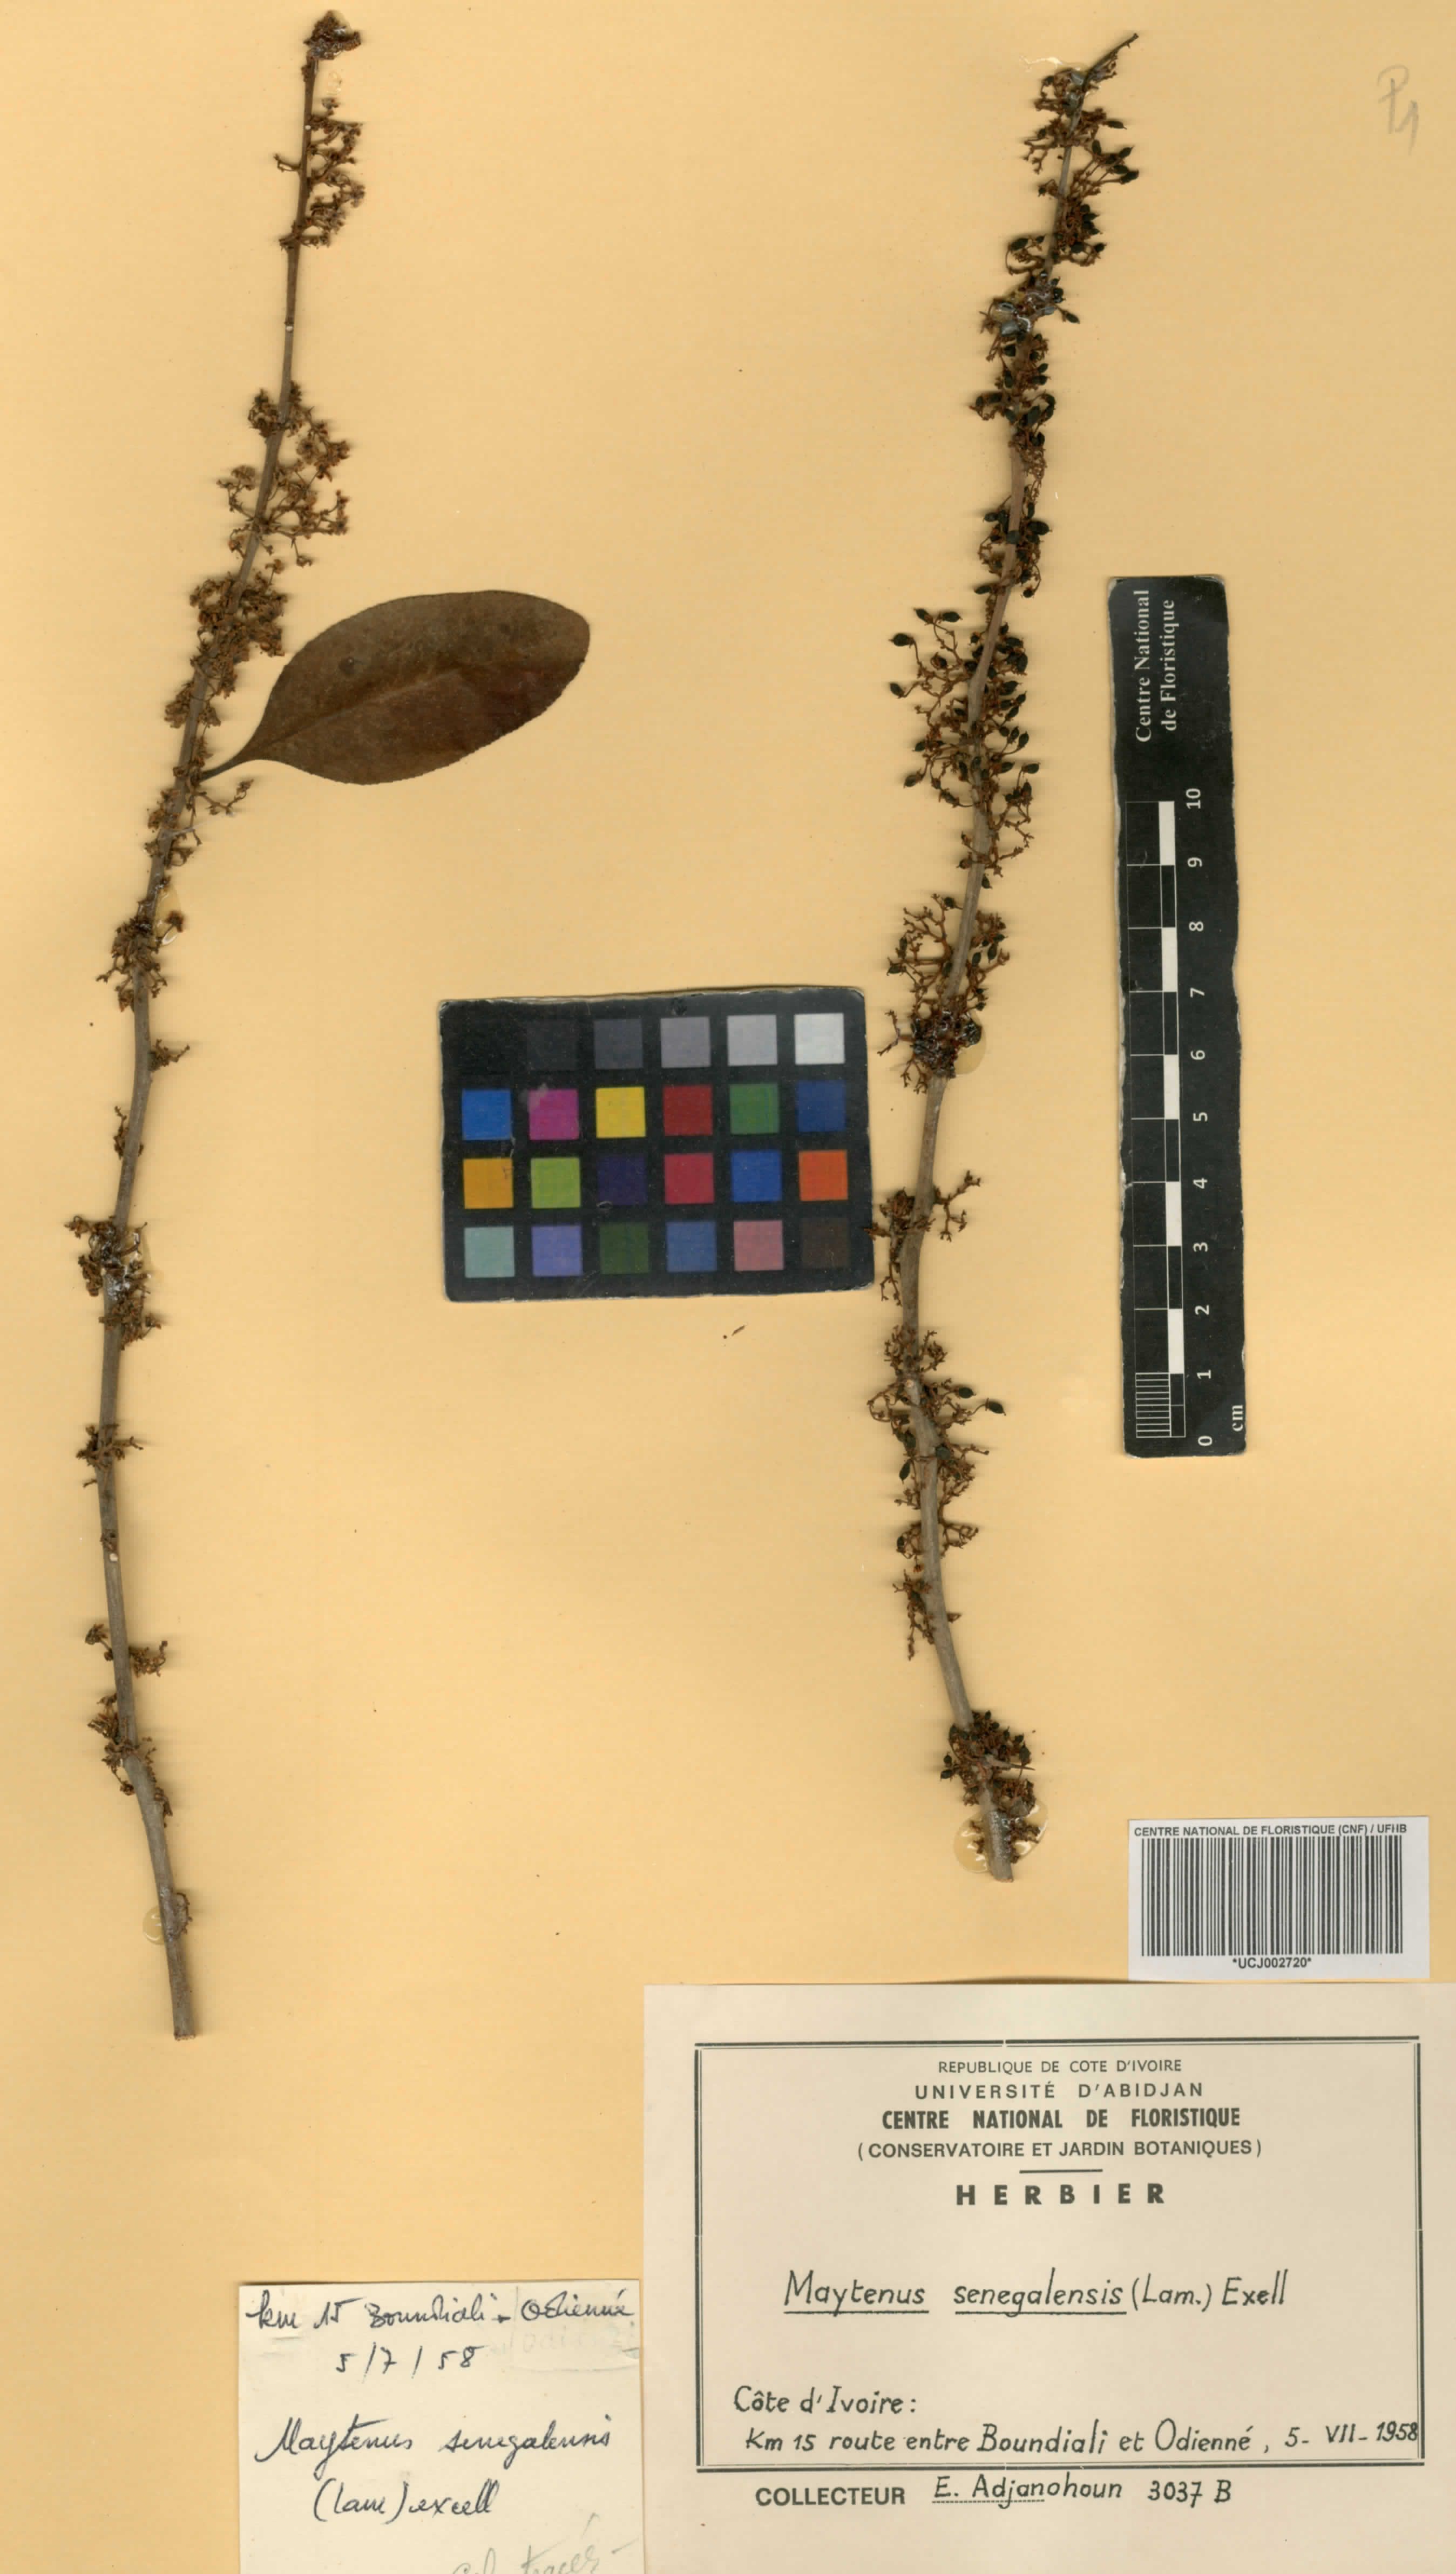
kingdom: Plantae
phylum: Tracheophyta
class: Magnoliopsida
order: Celastrales
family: Celastraceae
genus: Gymnosporia
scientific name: Gymnosporia senegalensis
